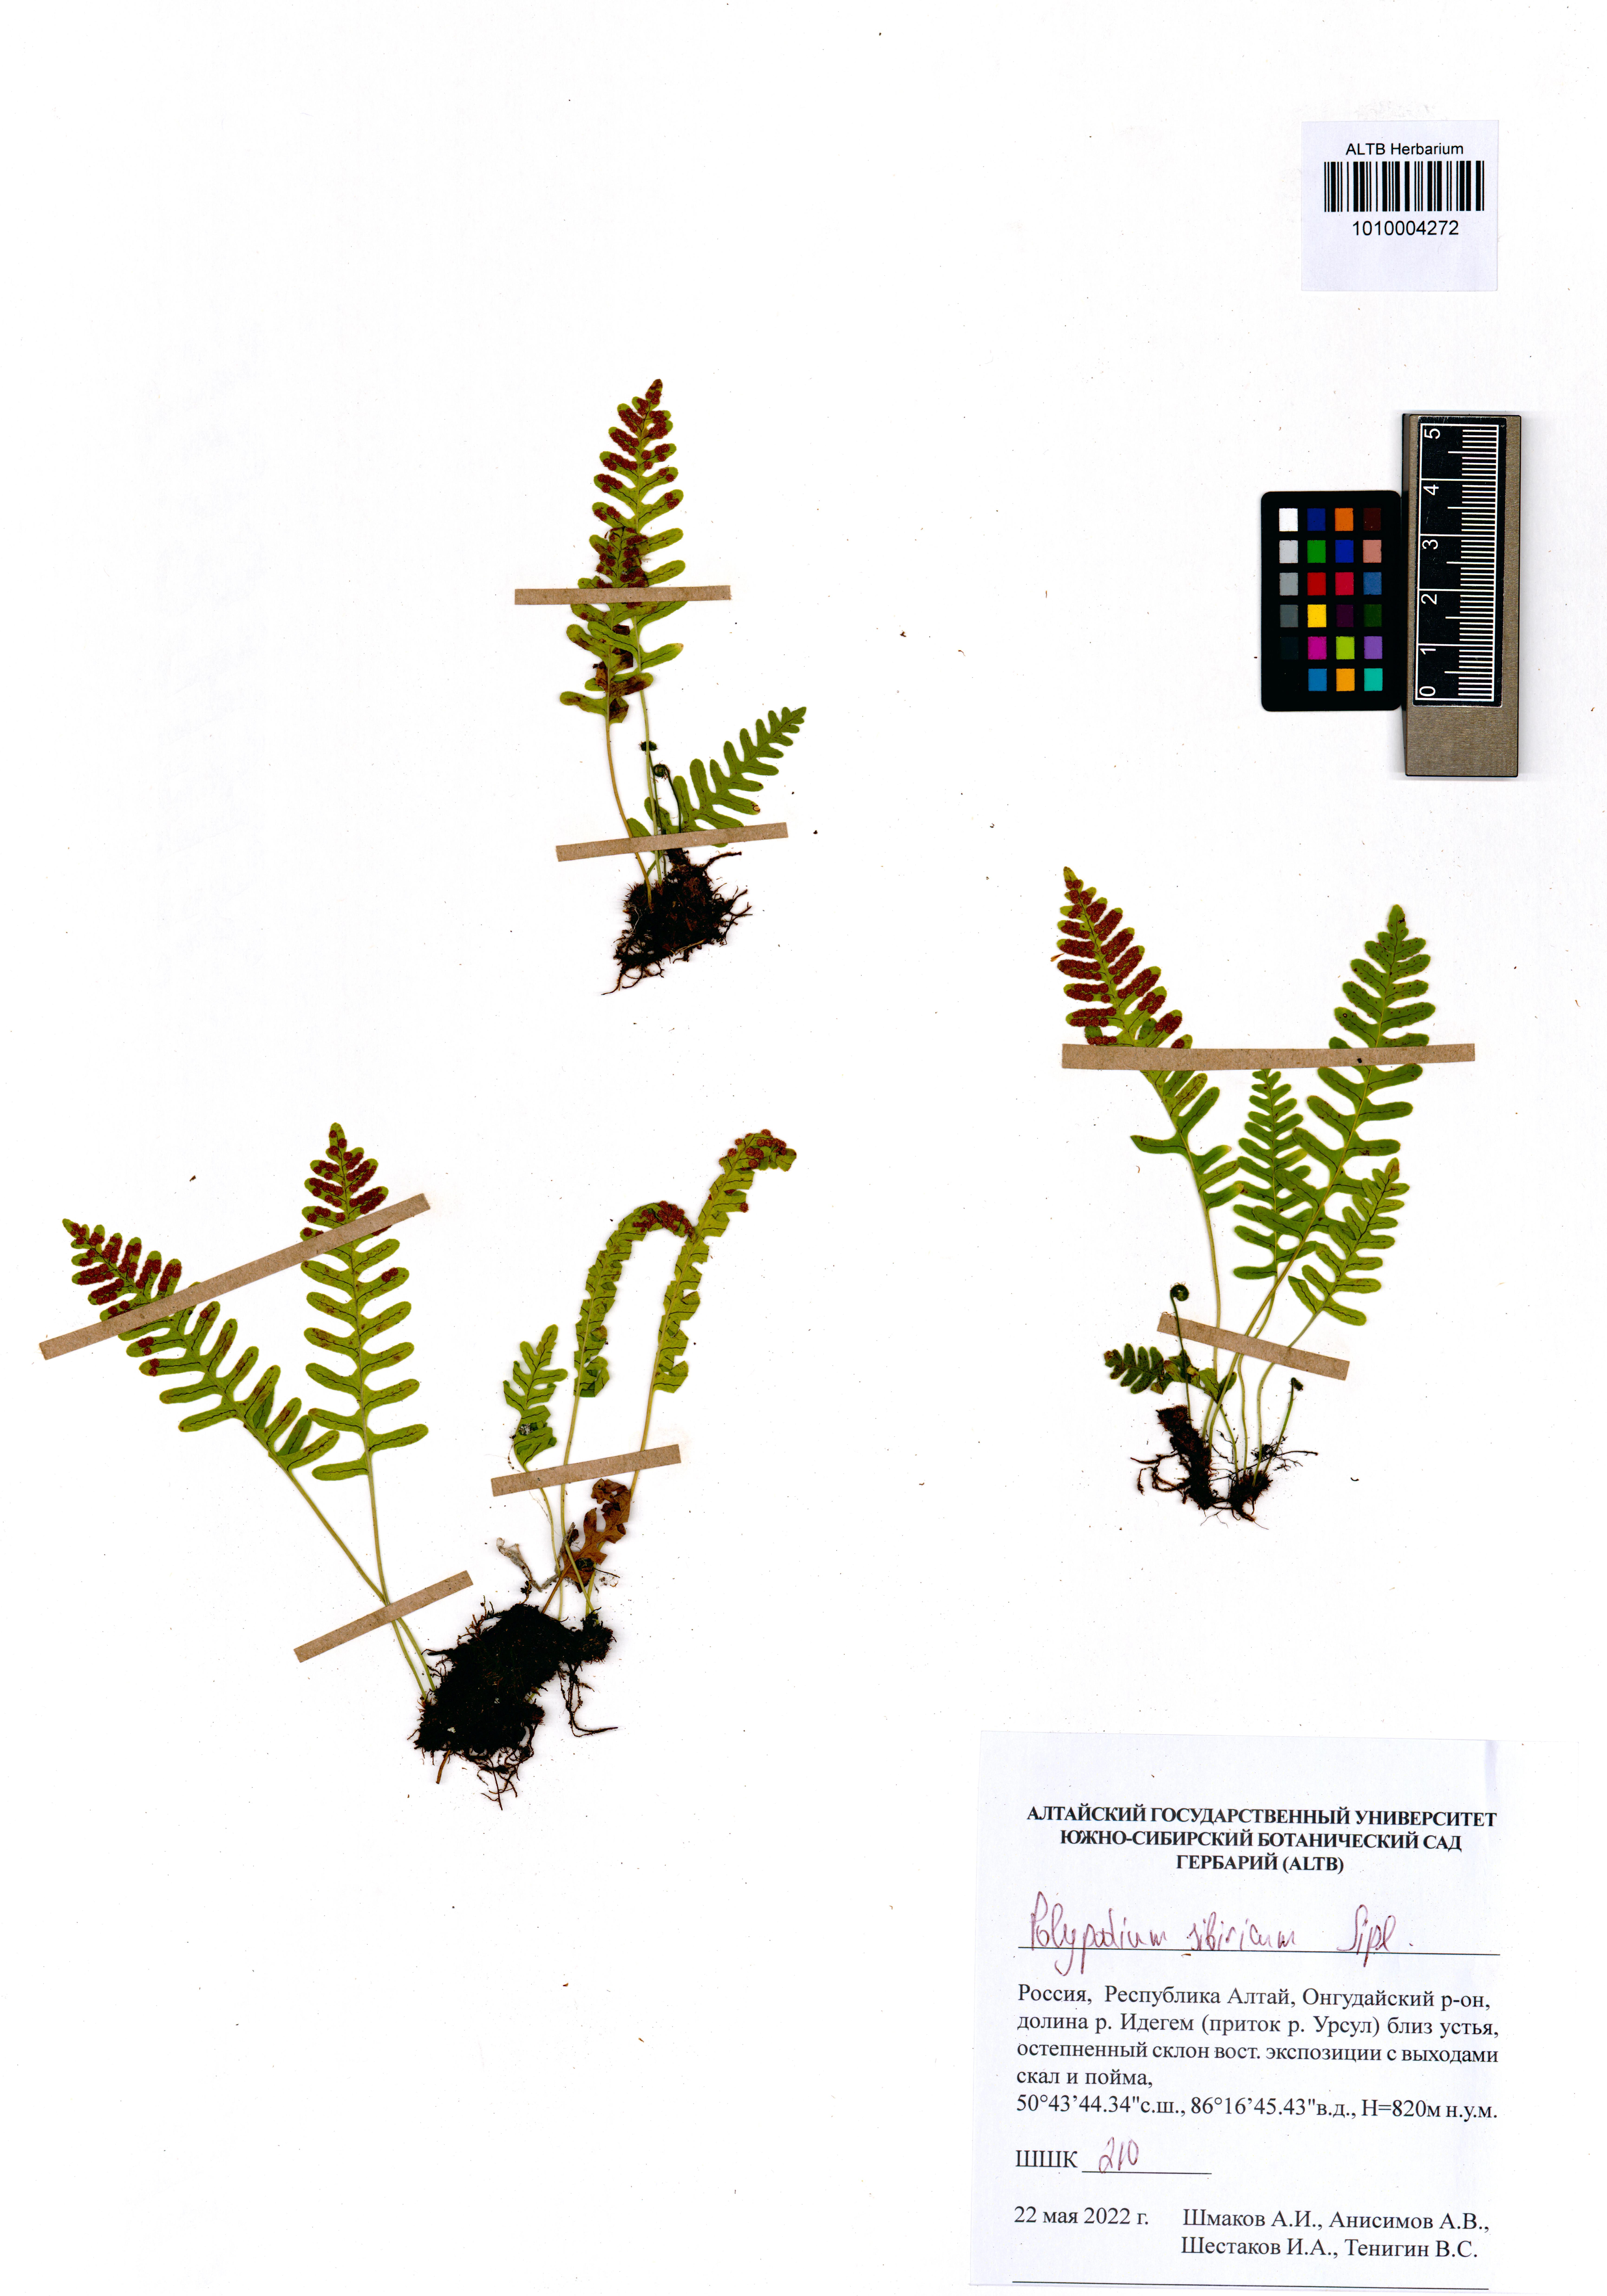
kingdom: Plantae
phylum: Tracheophyta
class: Polypodiopsida
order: Polypodiales
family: Polypodiaceae
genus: Polypodium
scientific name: Polypodium sibiricum
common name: Siberian polypody
